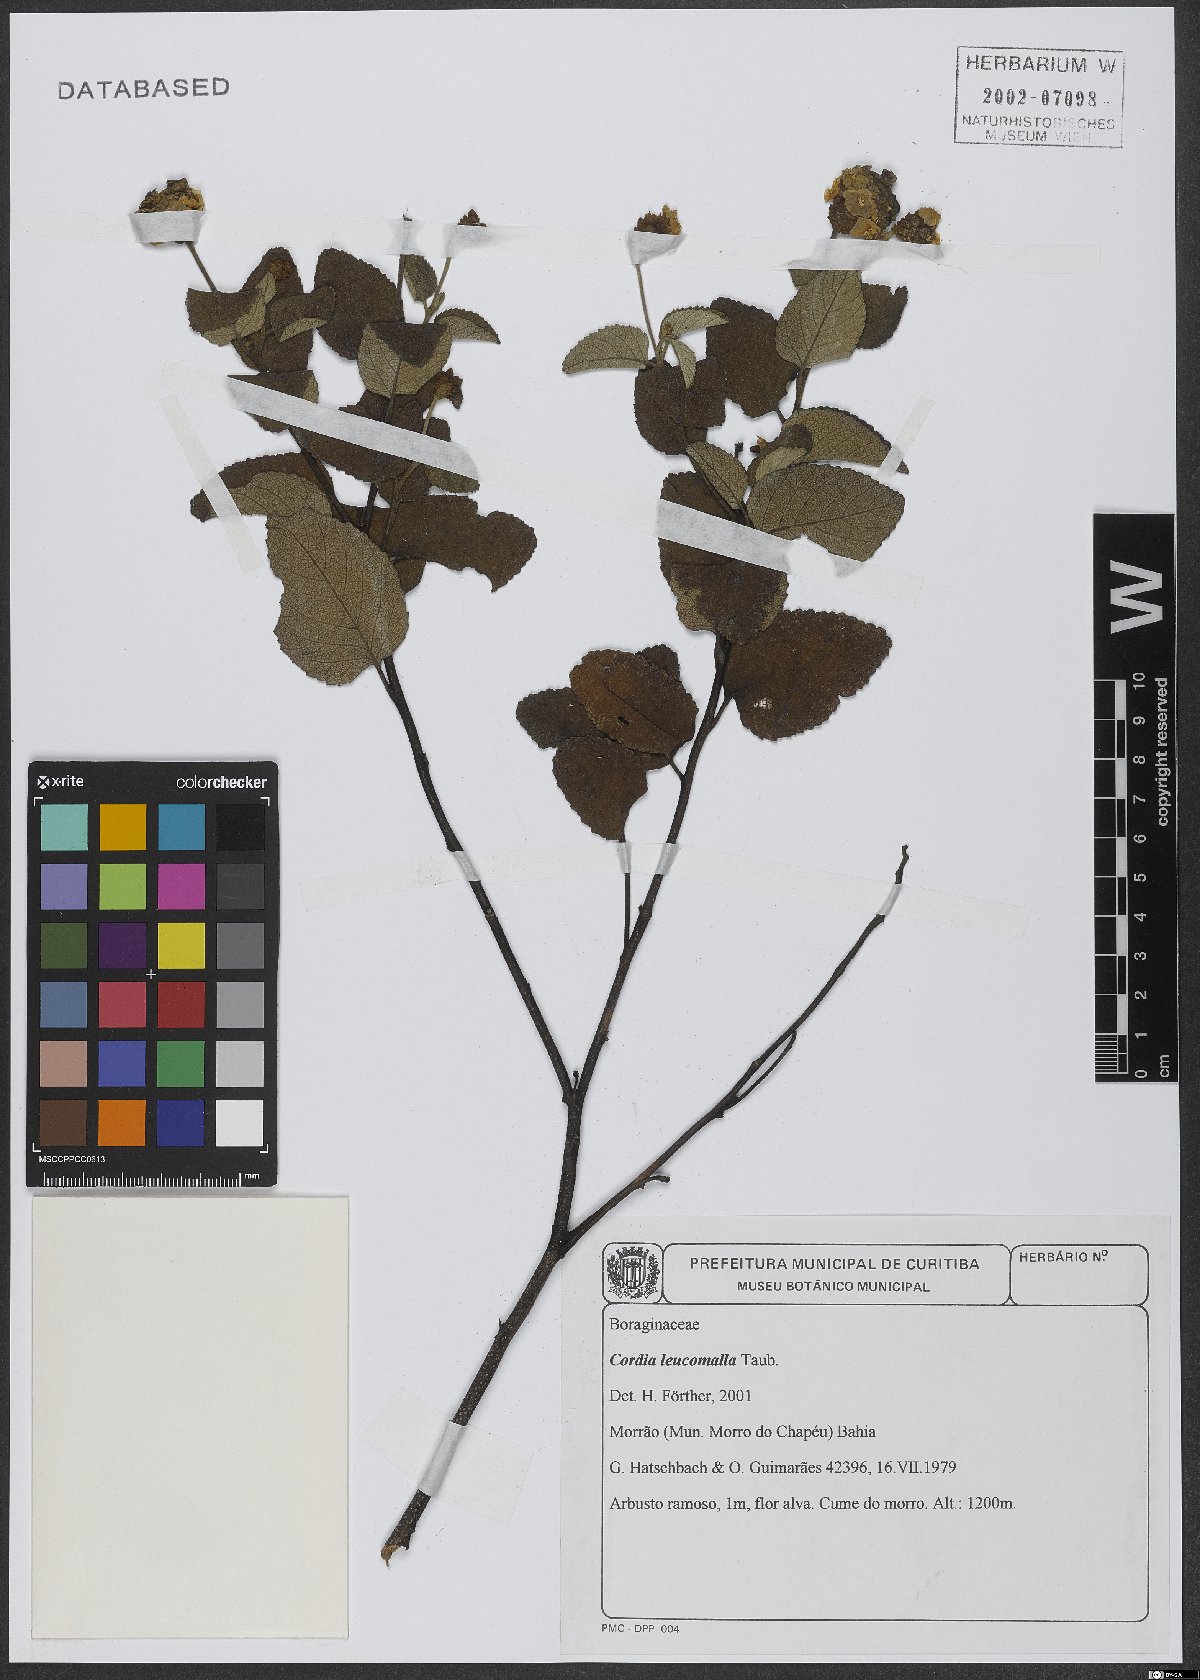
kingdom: Plantae
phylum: Tracheophyta
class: Magnoliopsida
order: Boraginales
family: Cordiaceae
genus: Varronia
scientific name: Varronia leucomalla
